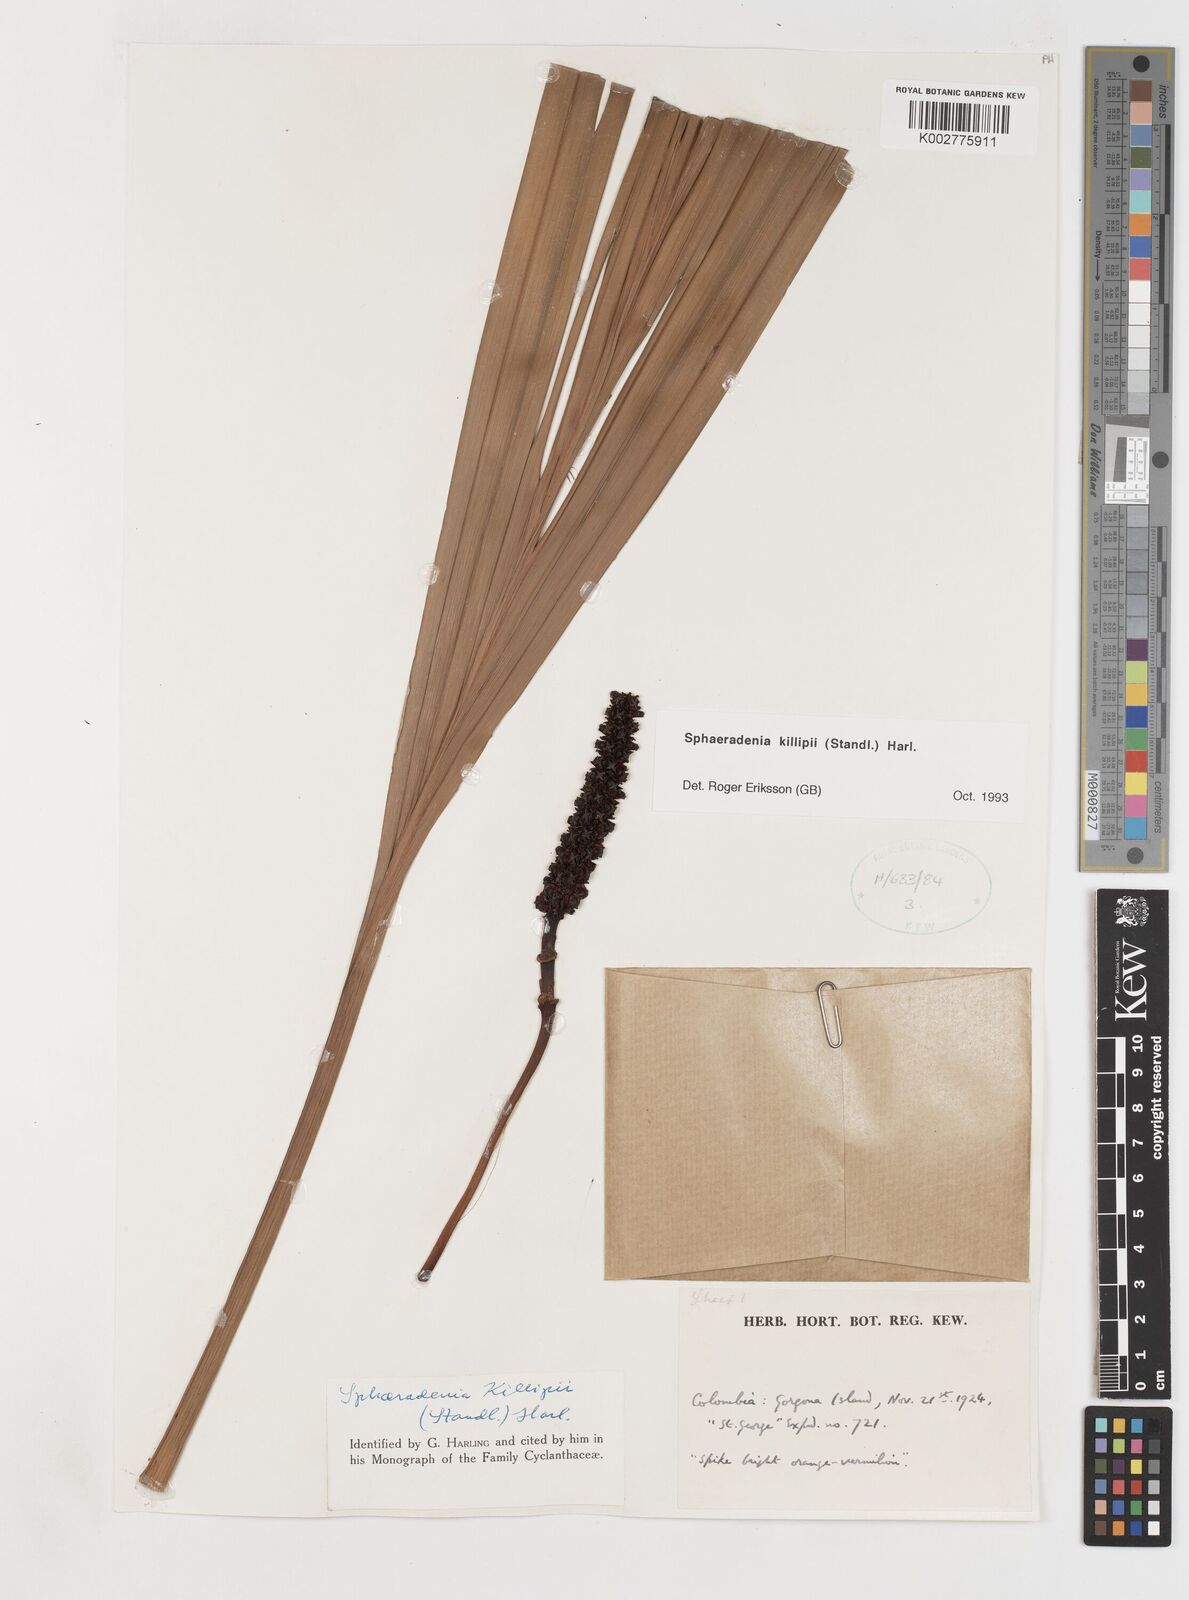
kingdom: Plantae
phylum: Tracheophyta
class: Liliopsida
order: Pandanales
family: Cyclanthaceae
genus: Sphaeradenia
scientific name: Sphaeradenia killipii
